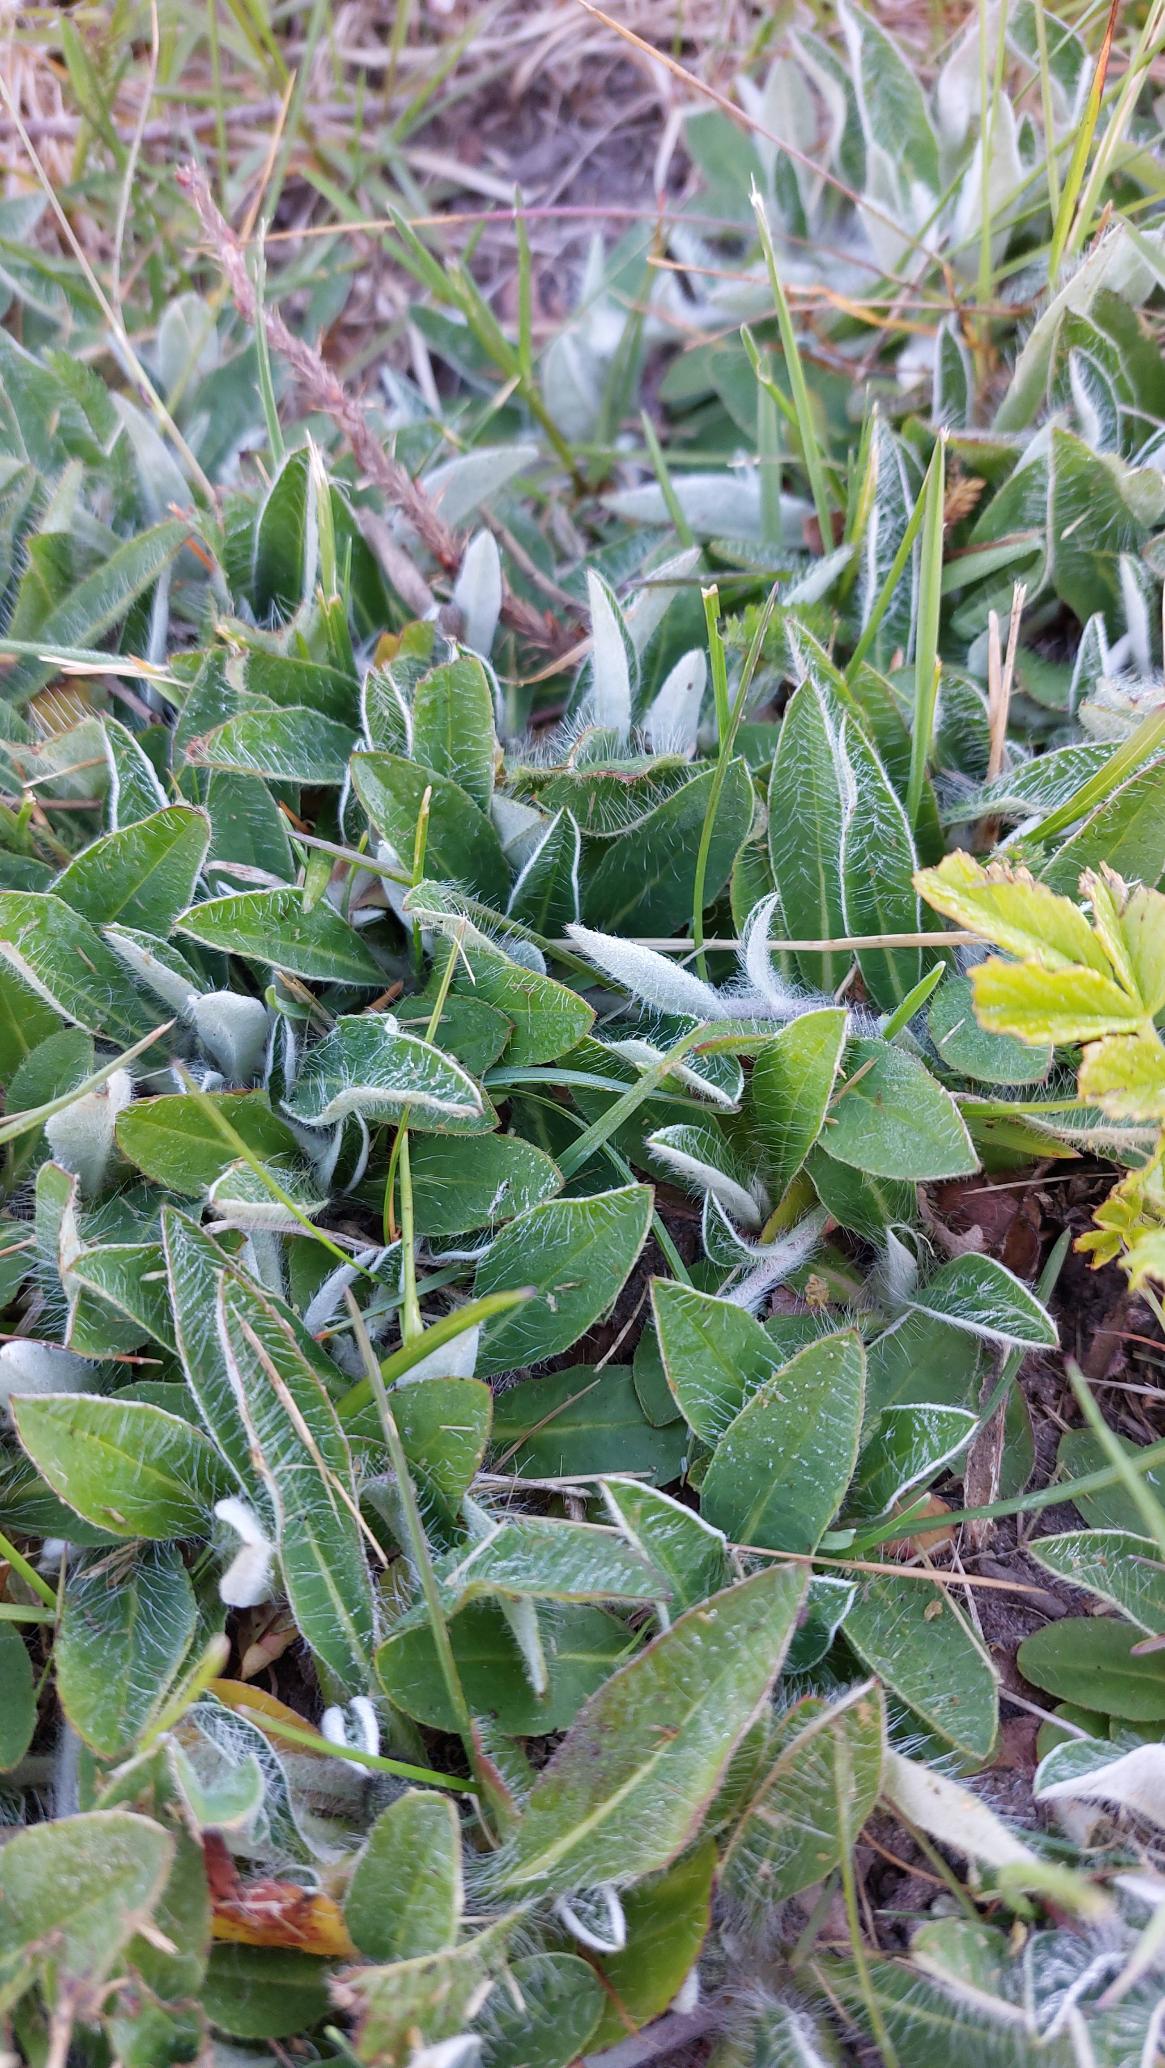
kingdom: Plantae
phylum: Tracheophyta
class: Magnoliopsida
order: Asterales
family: Asteraceae
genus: Pilosella
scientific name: Pilosella officinarum
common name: Håret høgeurt
